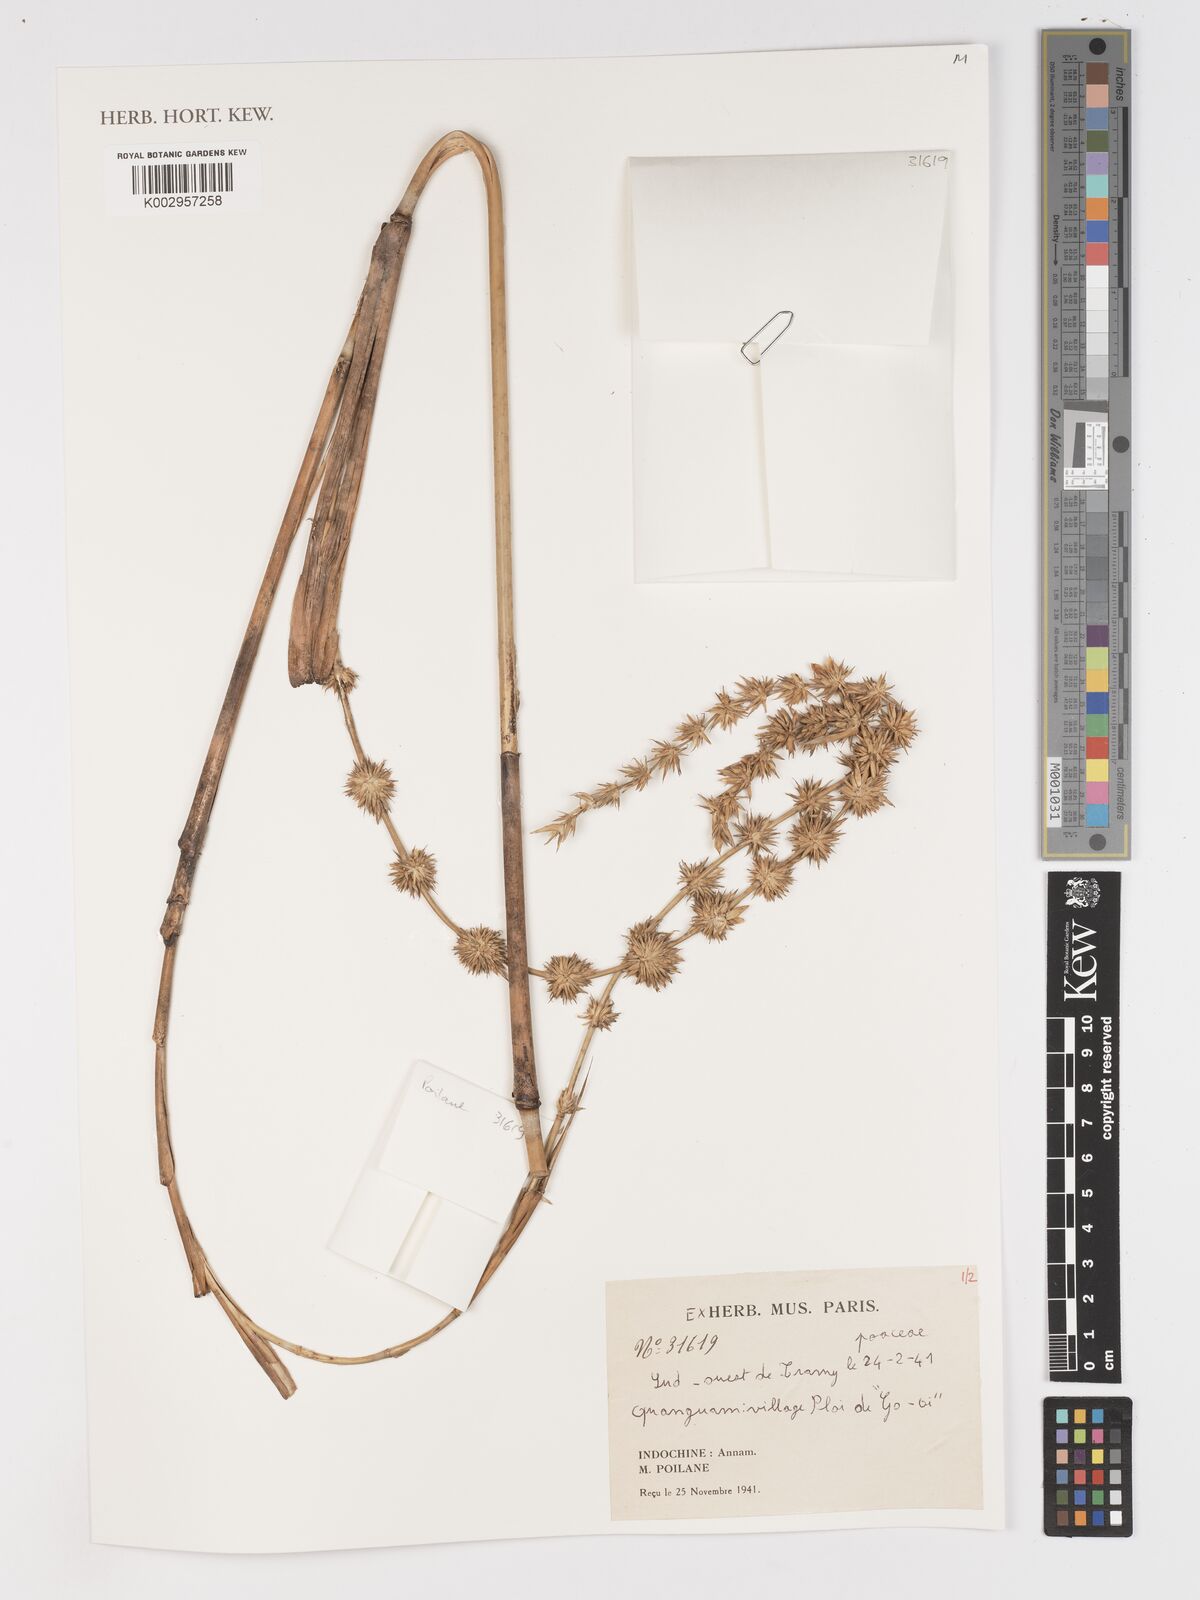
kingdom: Plantae
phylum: Tracheophyta
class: Liliopsida
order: Poales
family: Poaceae
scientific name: Poaceae
